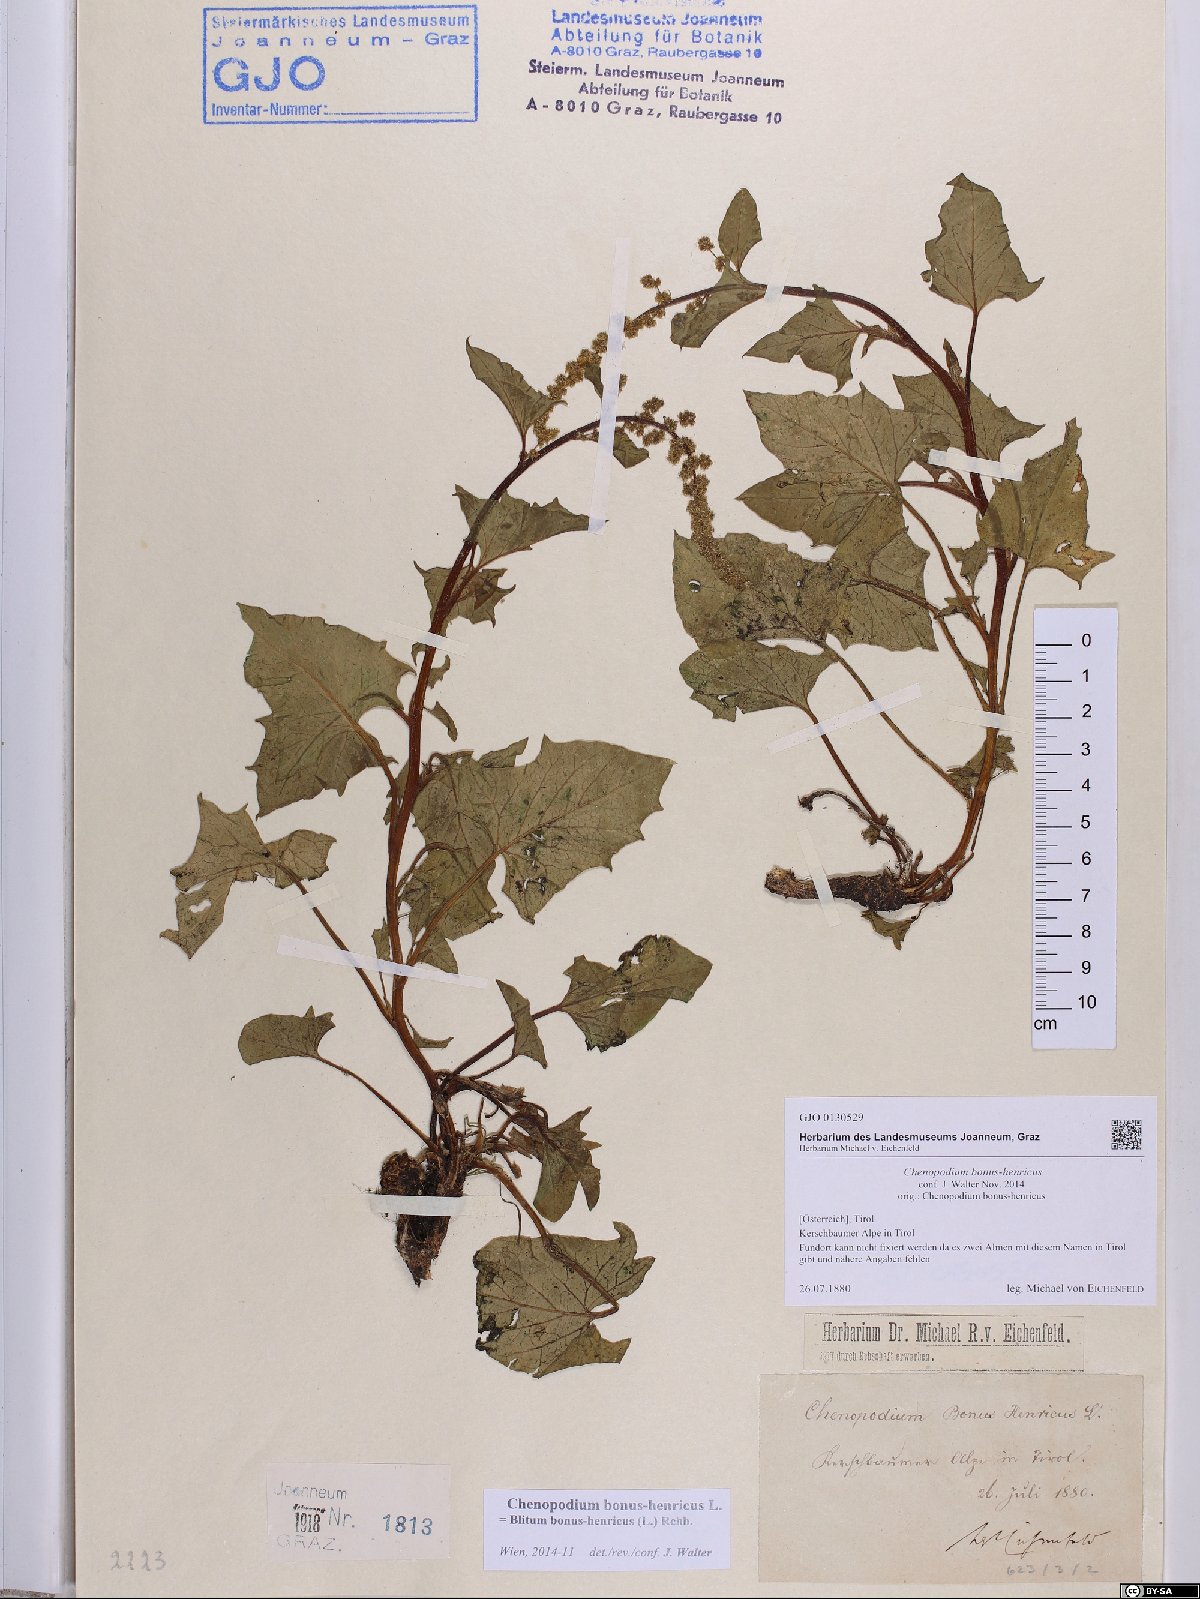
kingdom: Plantae
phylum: Tracheophyta
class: Magnoliopsida
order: Caryophyllales
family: Amaranthaceae
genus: Blitum
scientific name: Blitum bonus-henricus
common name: Good king henry
